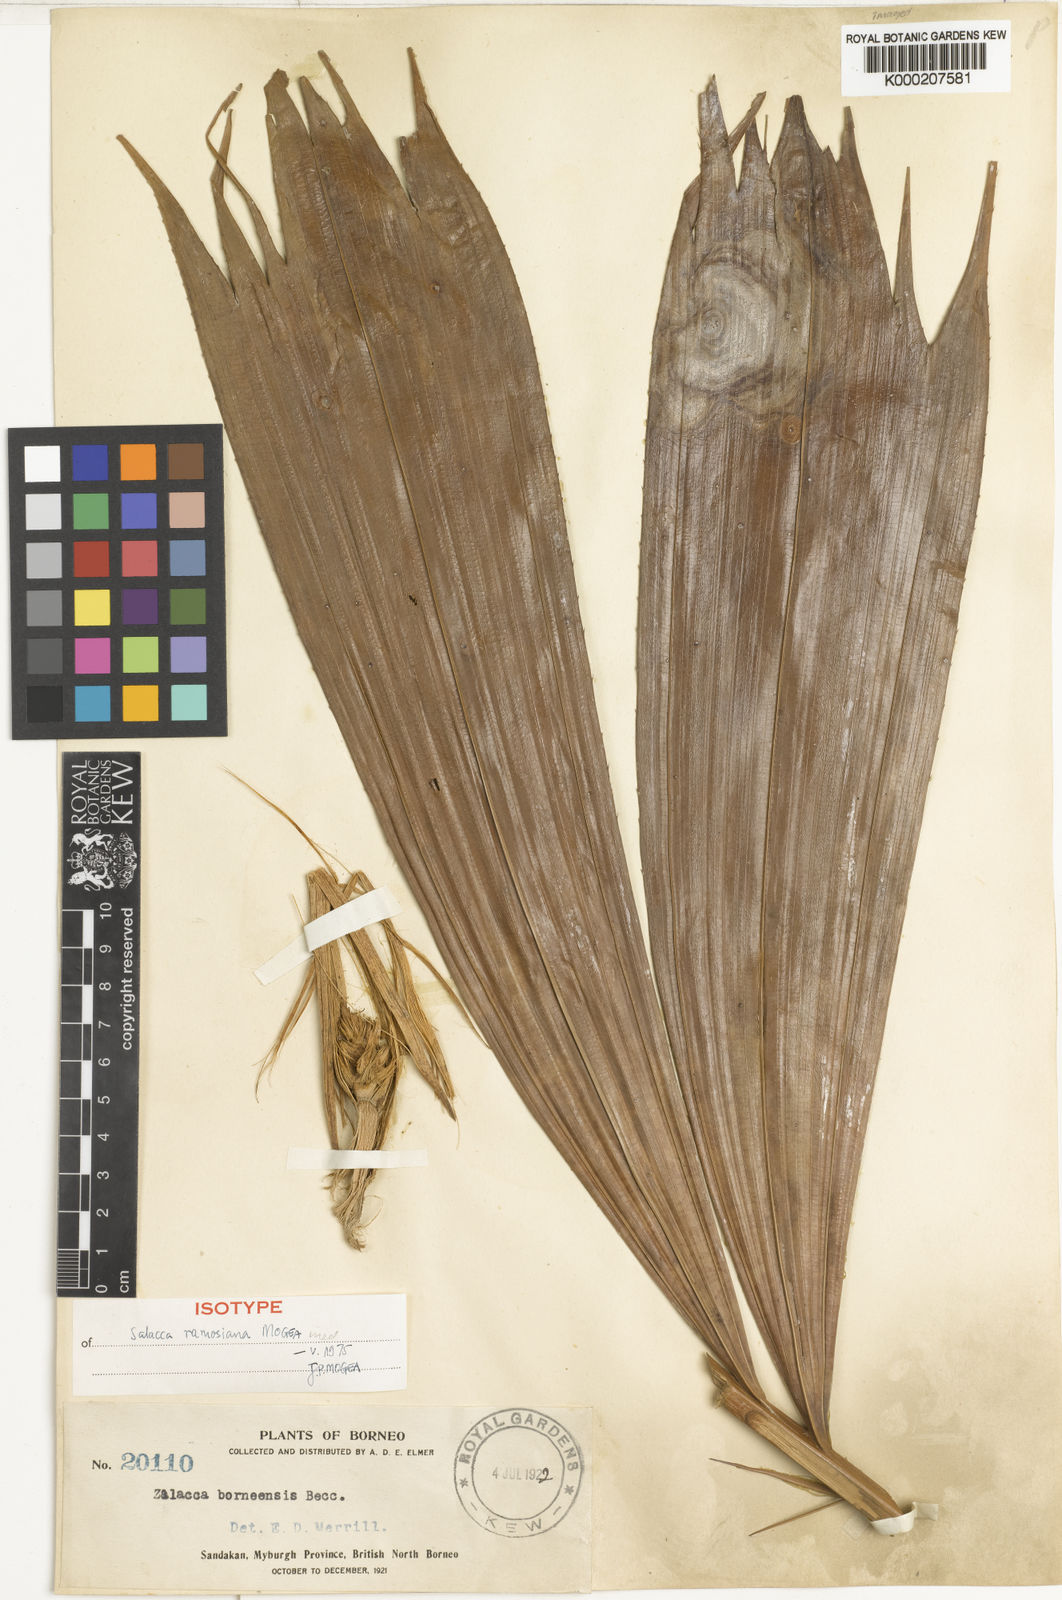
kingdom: Plantae
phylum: Tracheophyta
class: Liliopsida
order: Arecales
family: Arecaceae
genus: Salacca
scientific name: Salacca ramosiana
